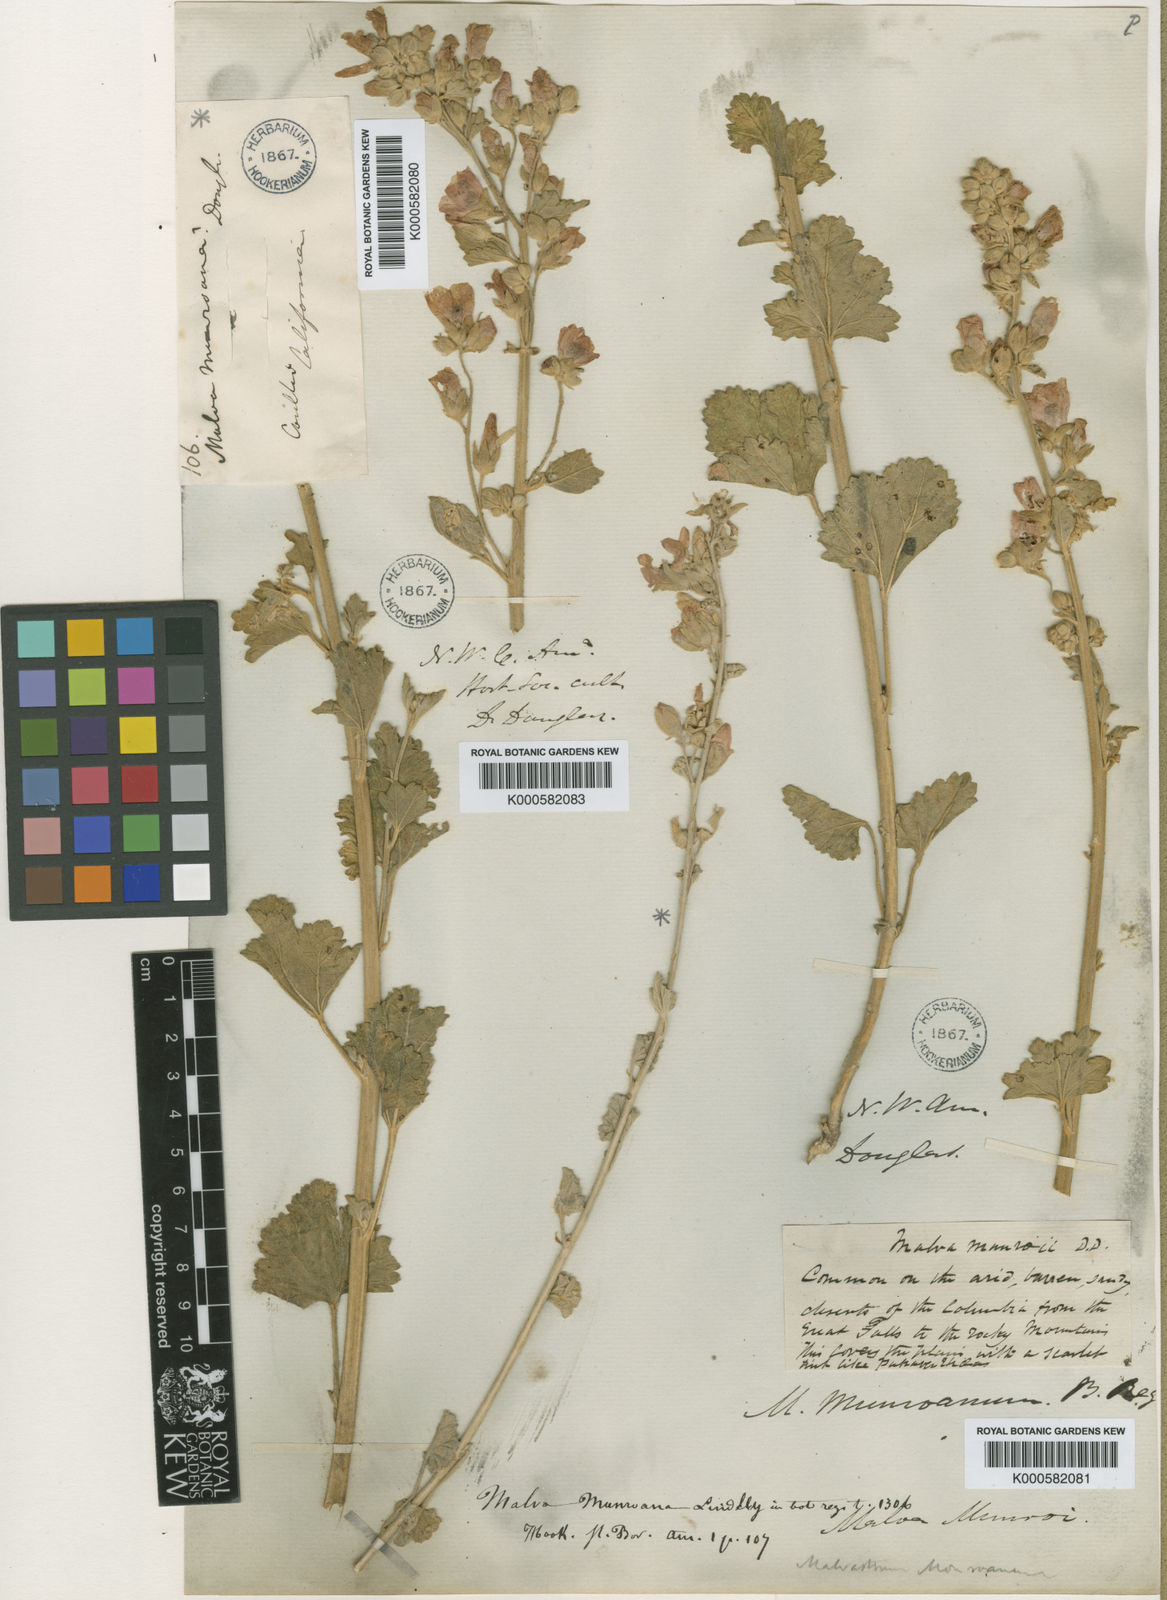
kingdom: Plantae
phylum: Tracheophyta
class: Magnoliopsida
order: Malvales
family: Malvaceae
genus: Sphaeralcea
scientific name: Sphaeralcea munroana
